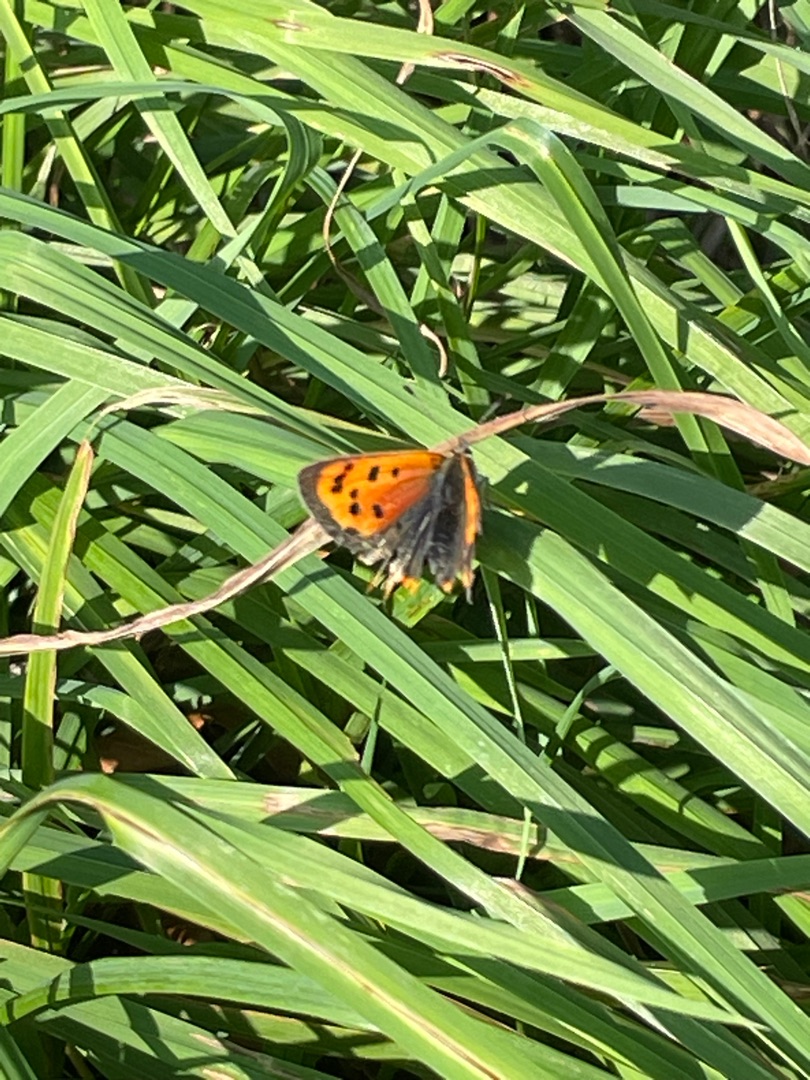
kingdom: Animalia
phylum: Arthropoda
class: Insecta
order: Lepidoptera
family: Lycaenidae
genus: Lycaena
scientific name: Lycaena phlaeas
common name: Lille ildfugl
